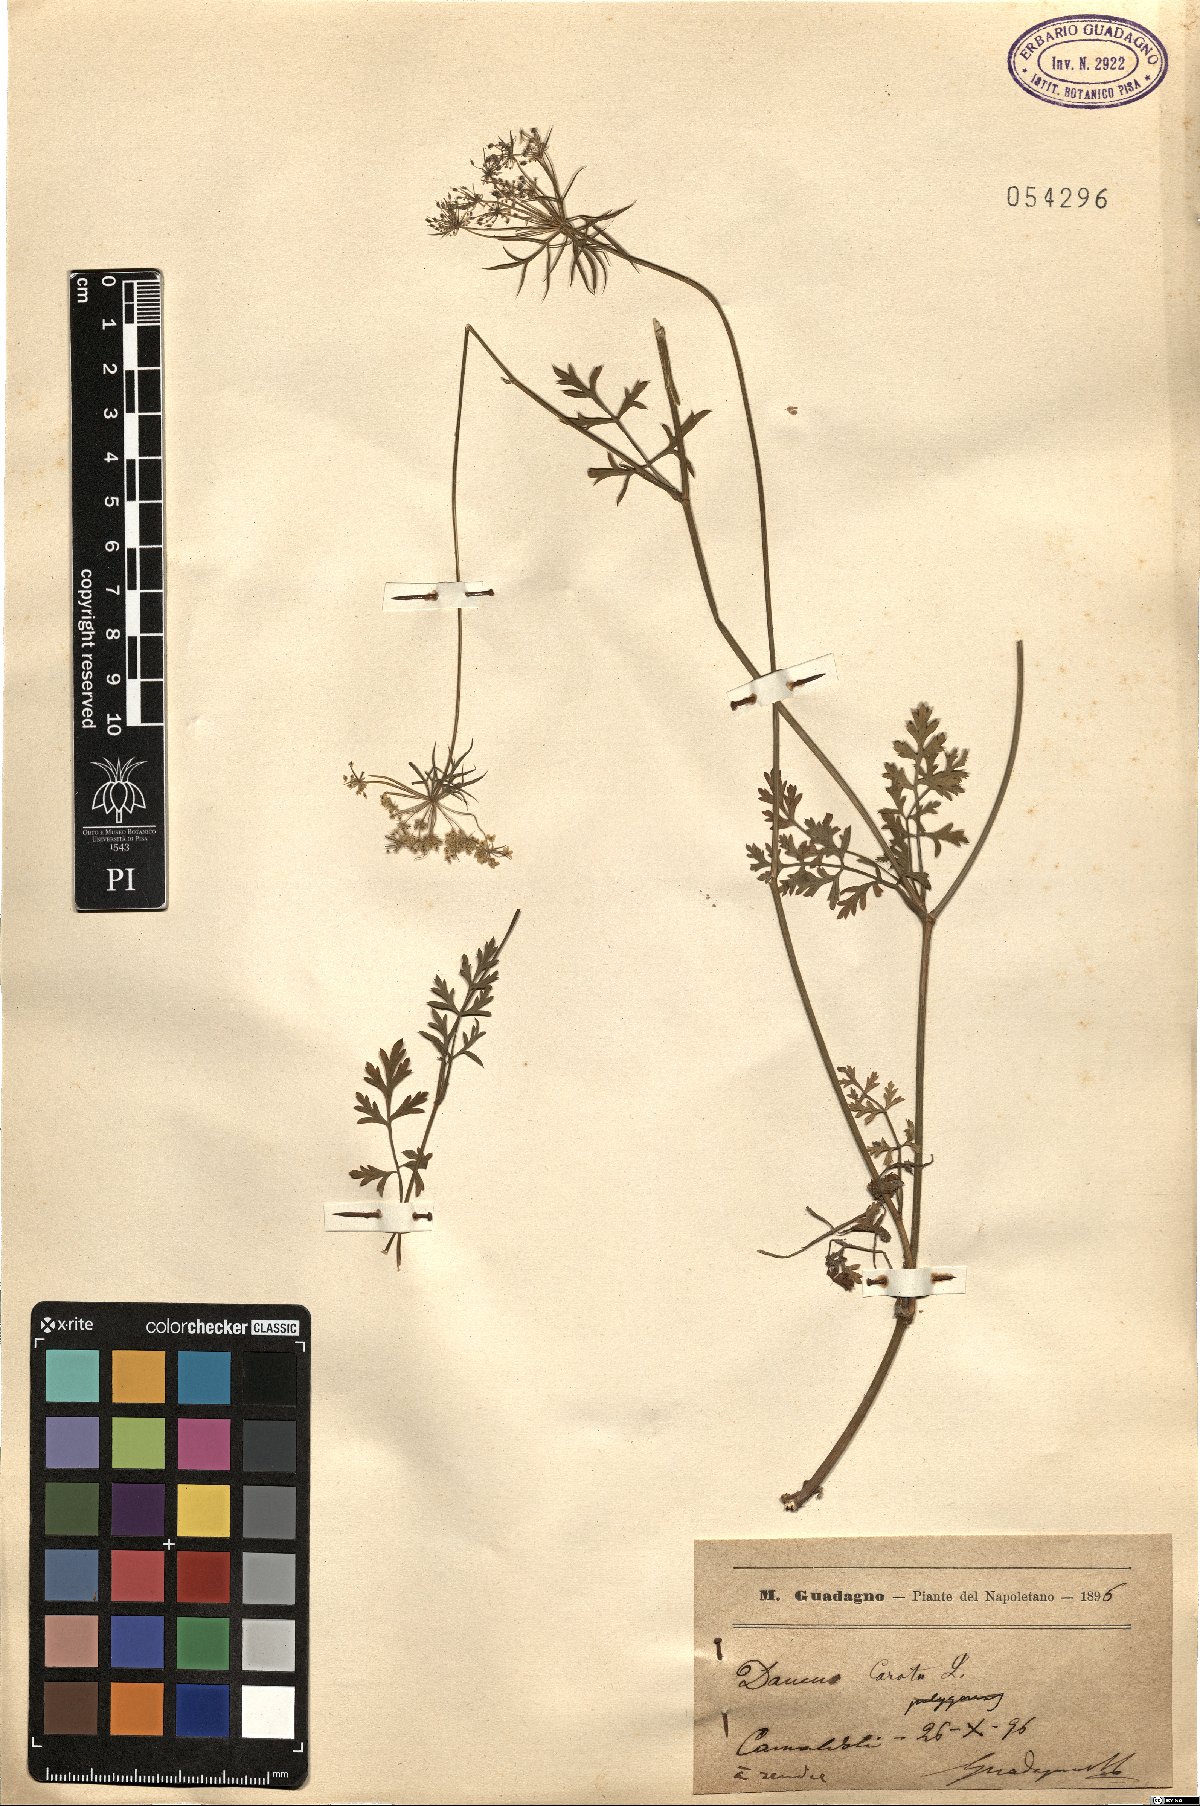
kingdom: Plantae
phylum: Tracheophyta
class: Magnoliopsida
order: Apiales
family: Apiaceae
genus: Daucus
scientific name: Daucus carota
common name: Wild carrot
